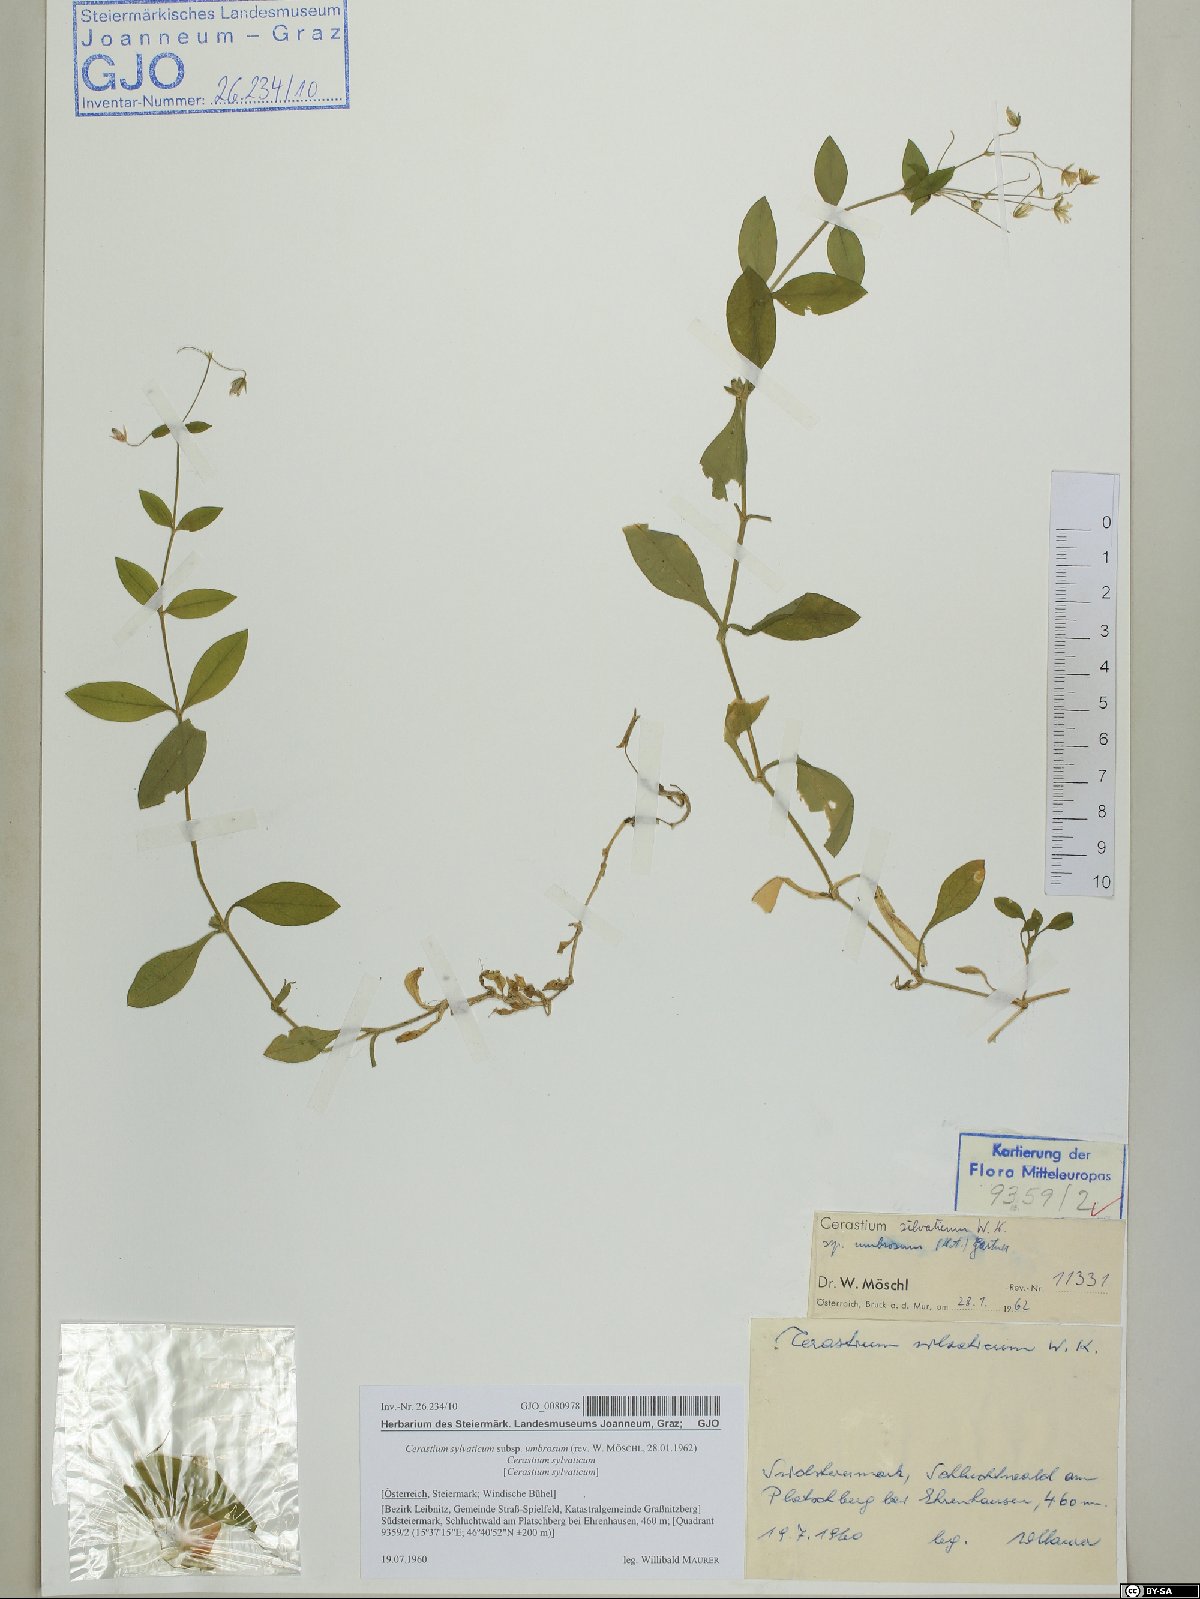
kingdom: Plantae
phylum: Tracheophyta
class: Magnoliopsida
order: Caryophyllales
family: Caryophyllaceae
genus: Cerastium
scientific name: Cerastium sylvaticum
